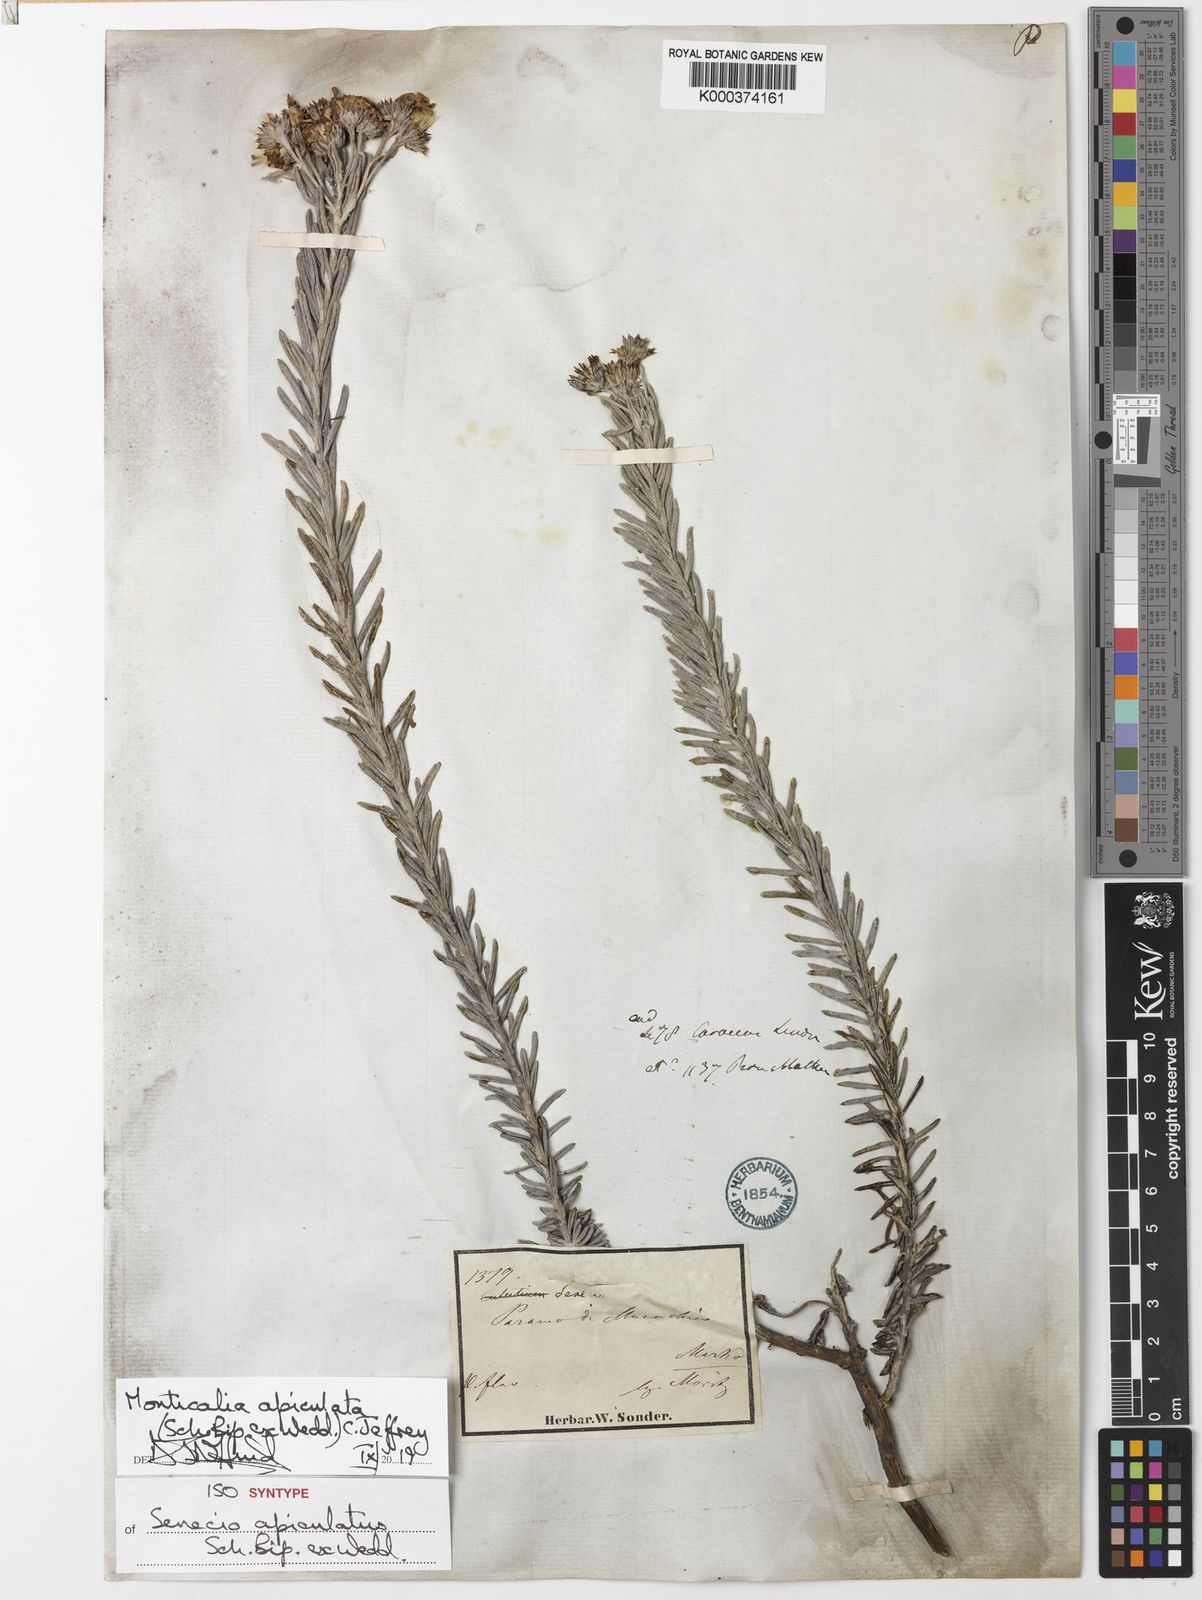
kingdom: Plantae
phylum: Tracheophyta
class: Magnoliopsida
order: Asterales
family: Asteraceae
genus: Monticalia
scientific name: Monticalia apiculata
